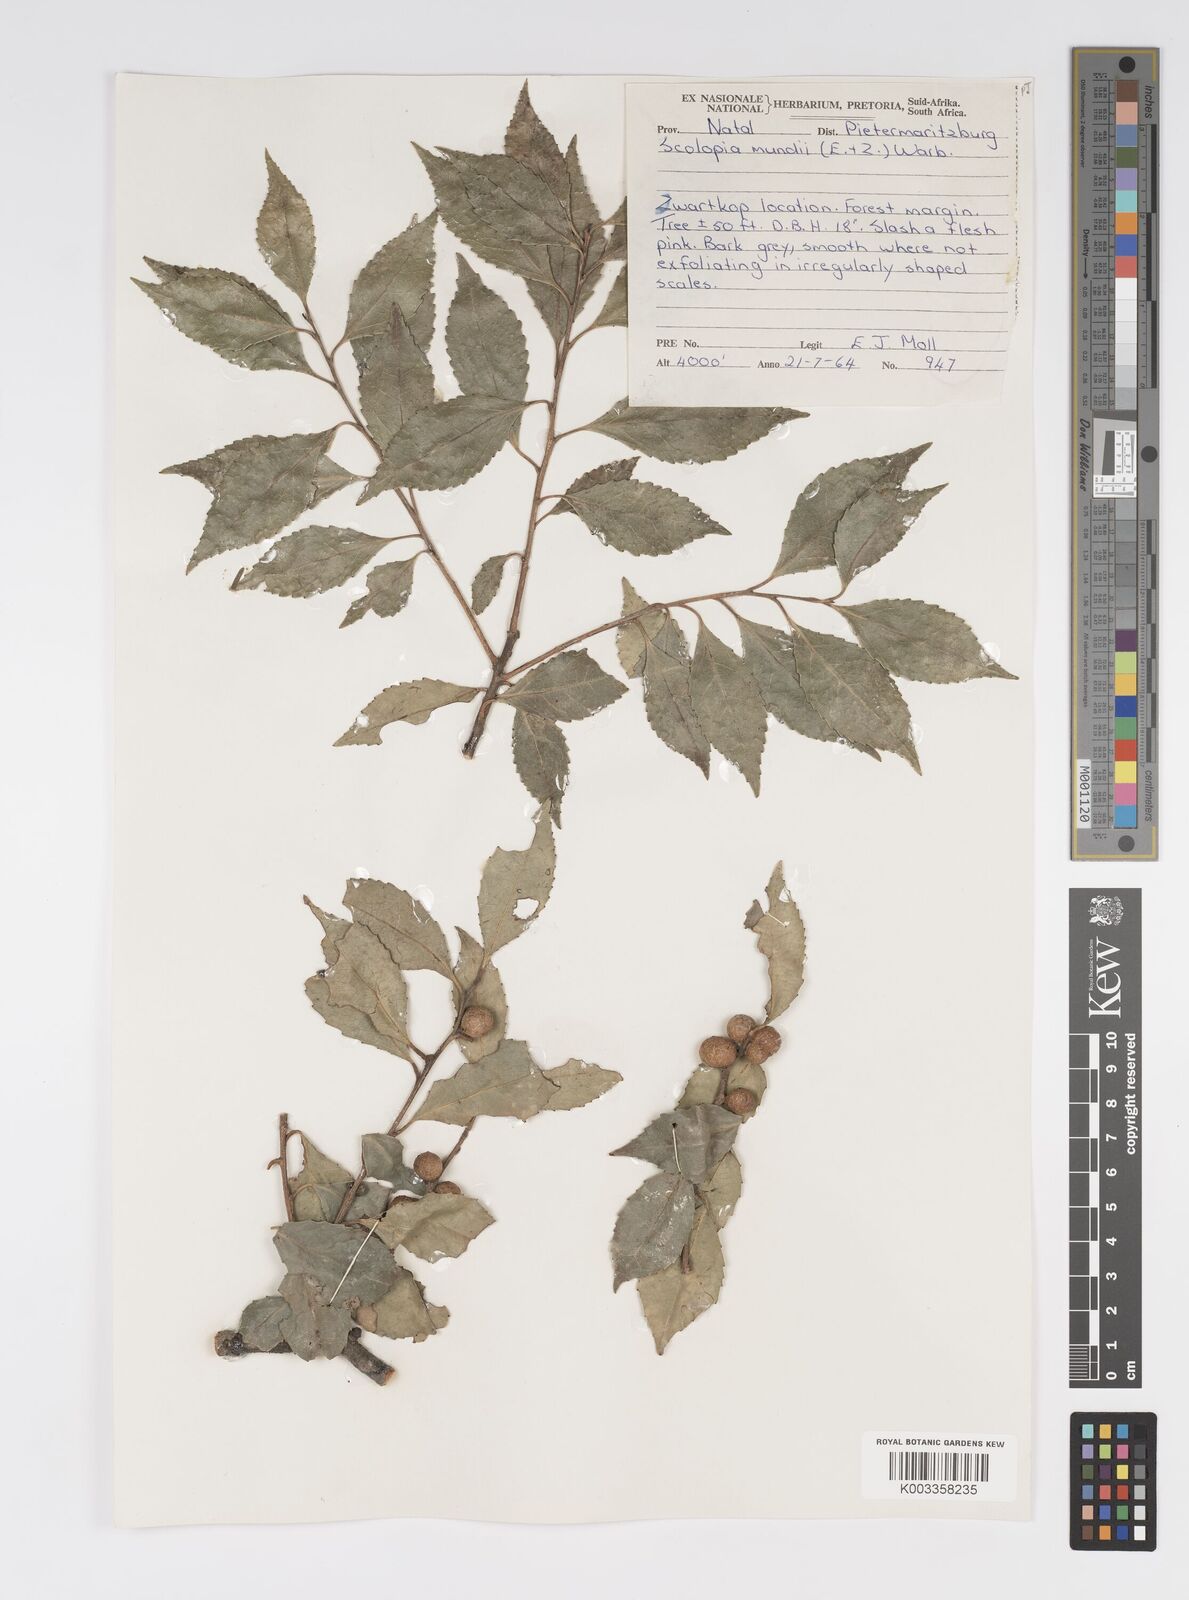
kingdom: Plantae
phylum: Tracheophyta
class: Magnoliopsida
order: Malpighiales
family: Salicaceae
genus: Scolopia
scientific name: Scolopia mundii
